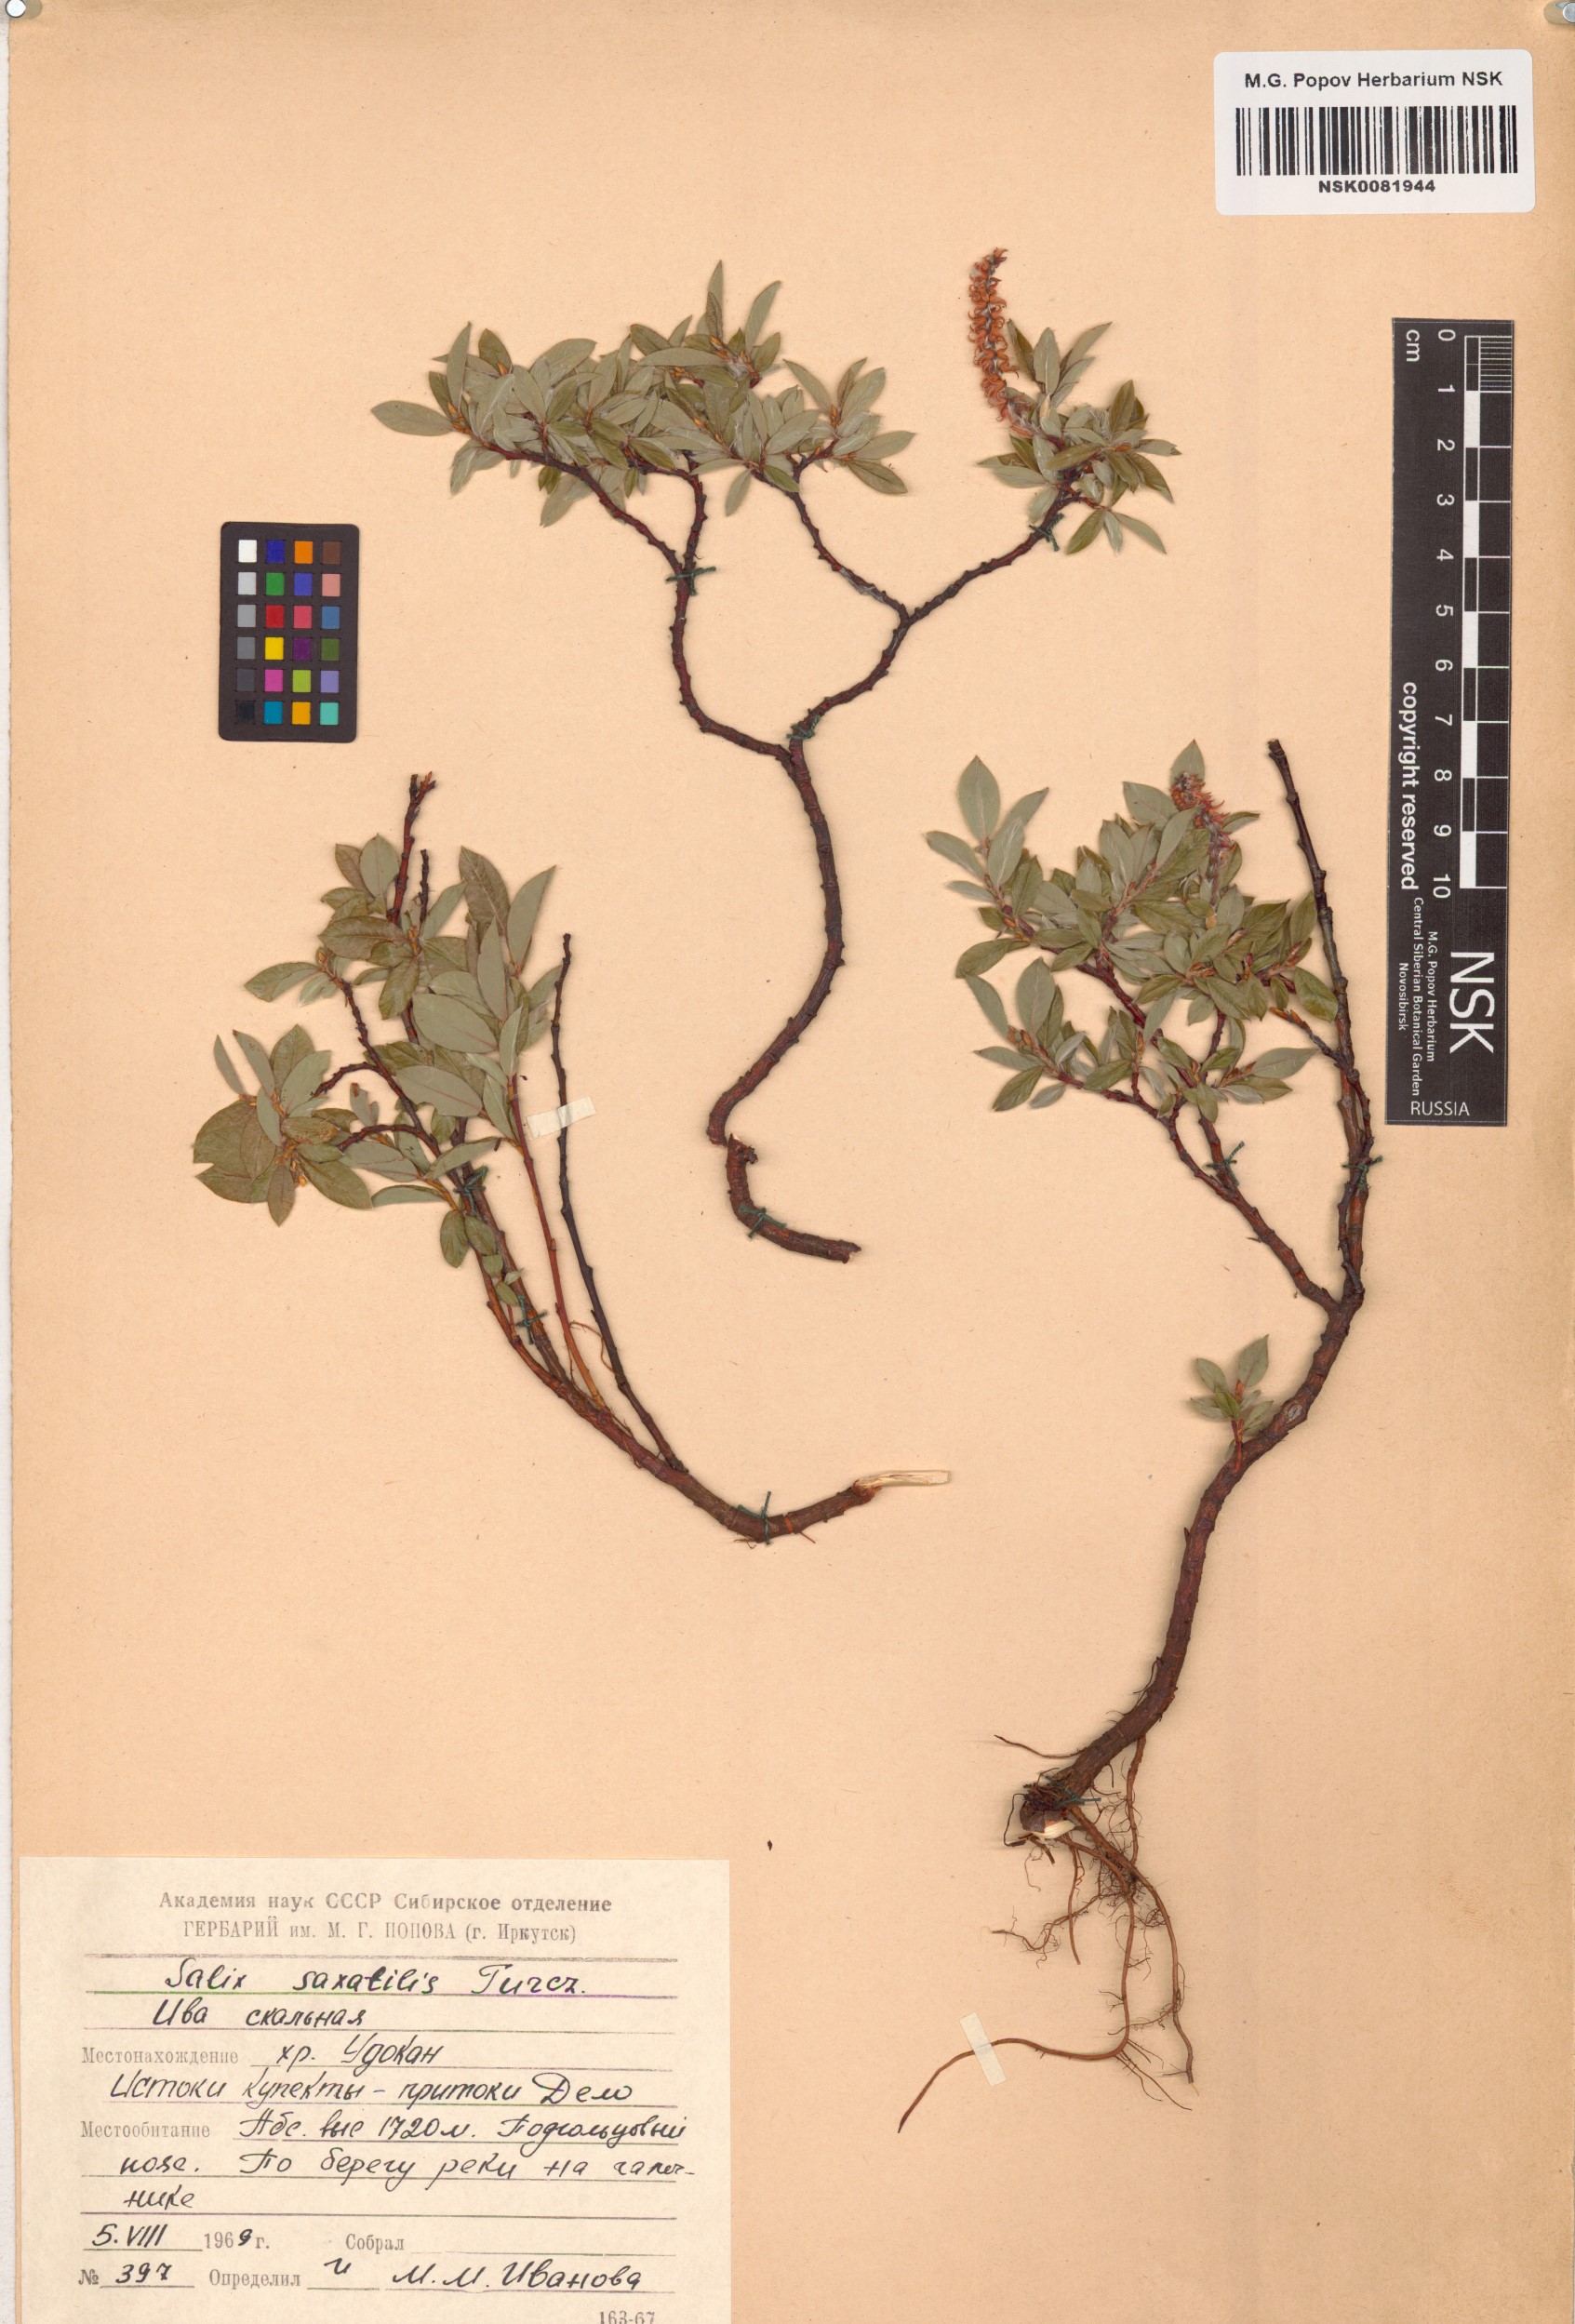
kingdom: Plantae
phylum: Tracheophyta
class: Magnoliopsida
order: Malpighiales
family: Salicaceae
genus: Salix
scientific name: Salix saxatilis
